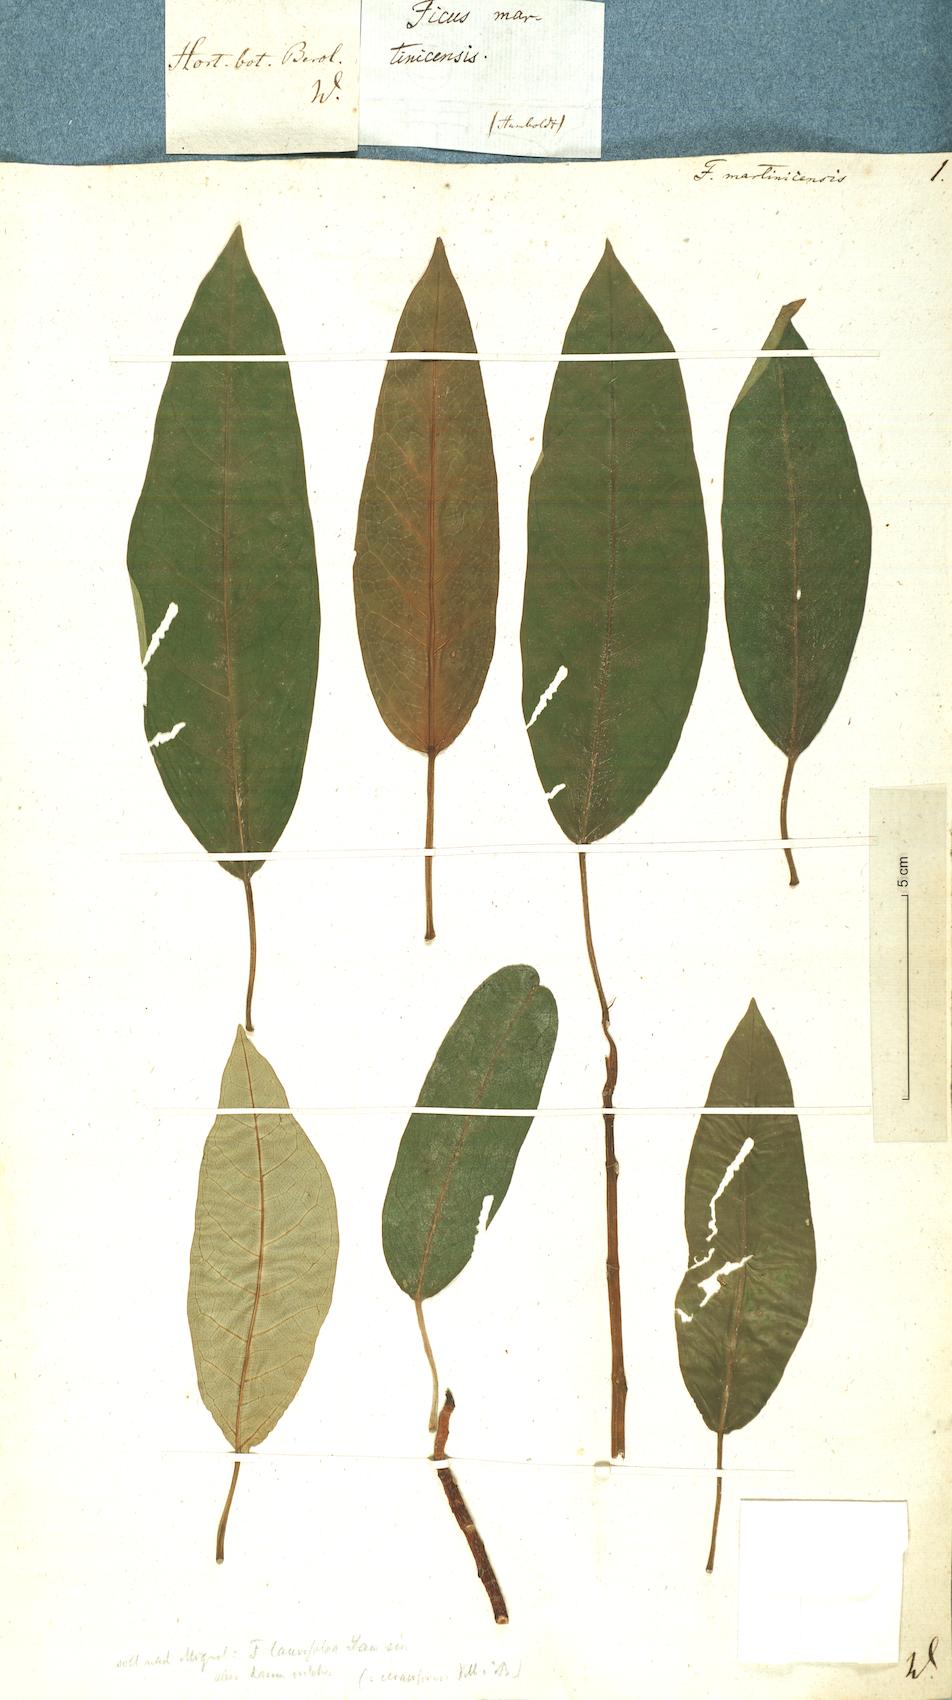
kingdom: Plantae
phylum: Tracheophyta
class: Magnoliopsida
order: Rosales
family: Moraceae
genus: Ficus
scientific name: Ficus martinicensis
